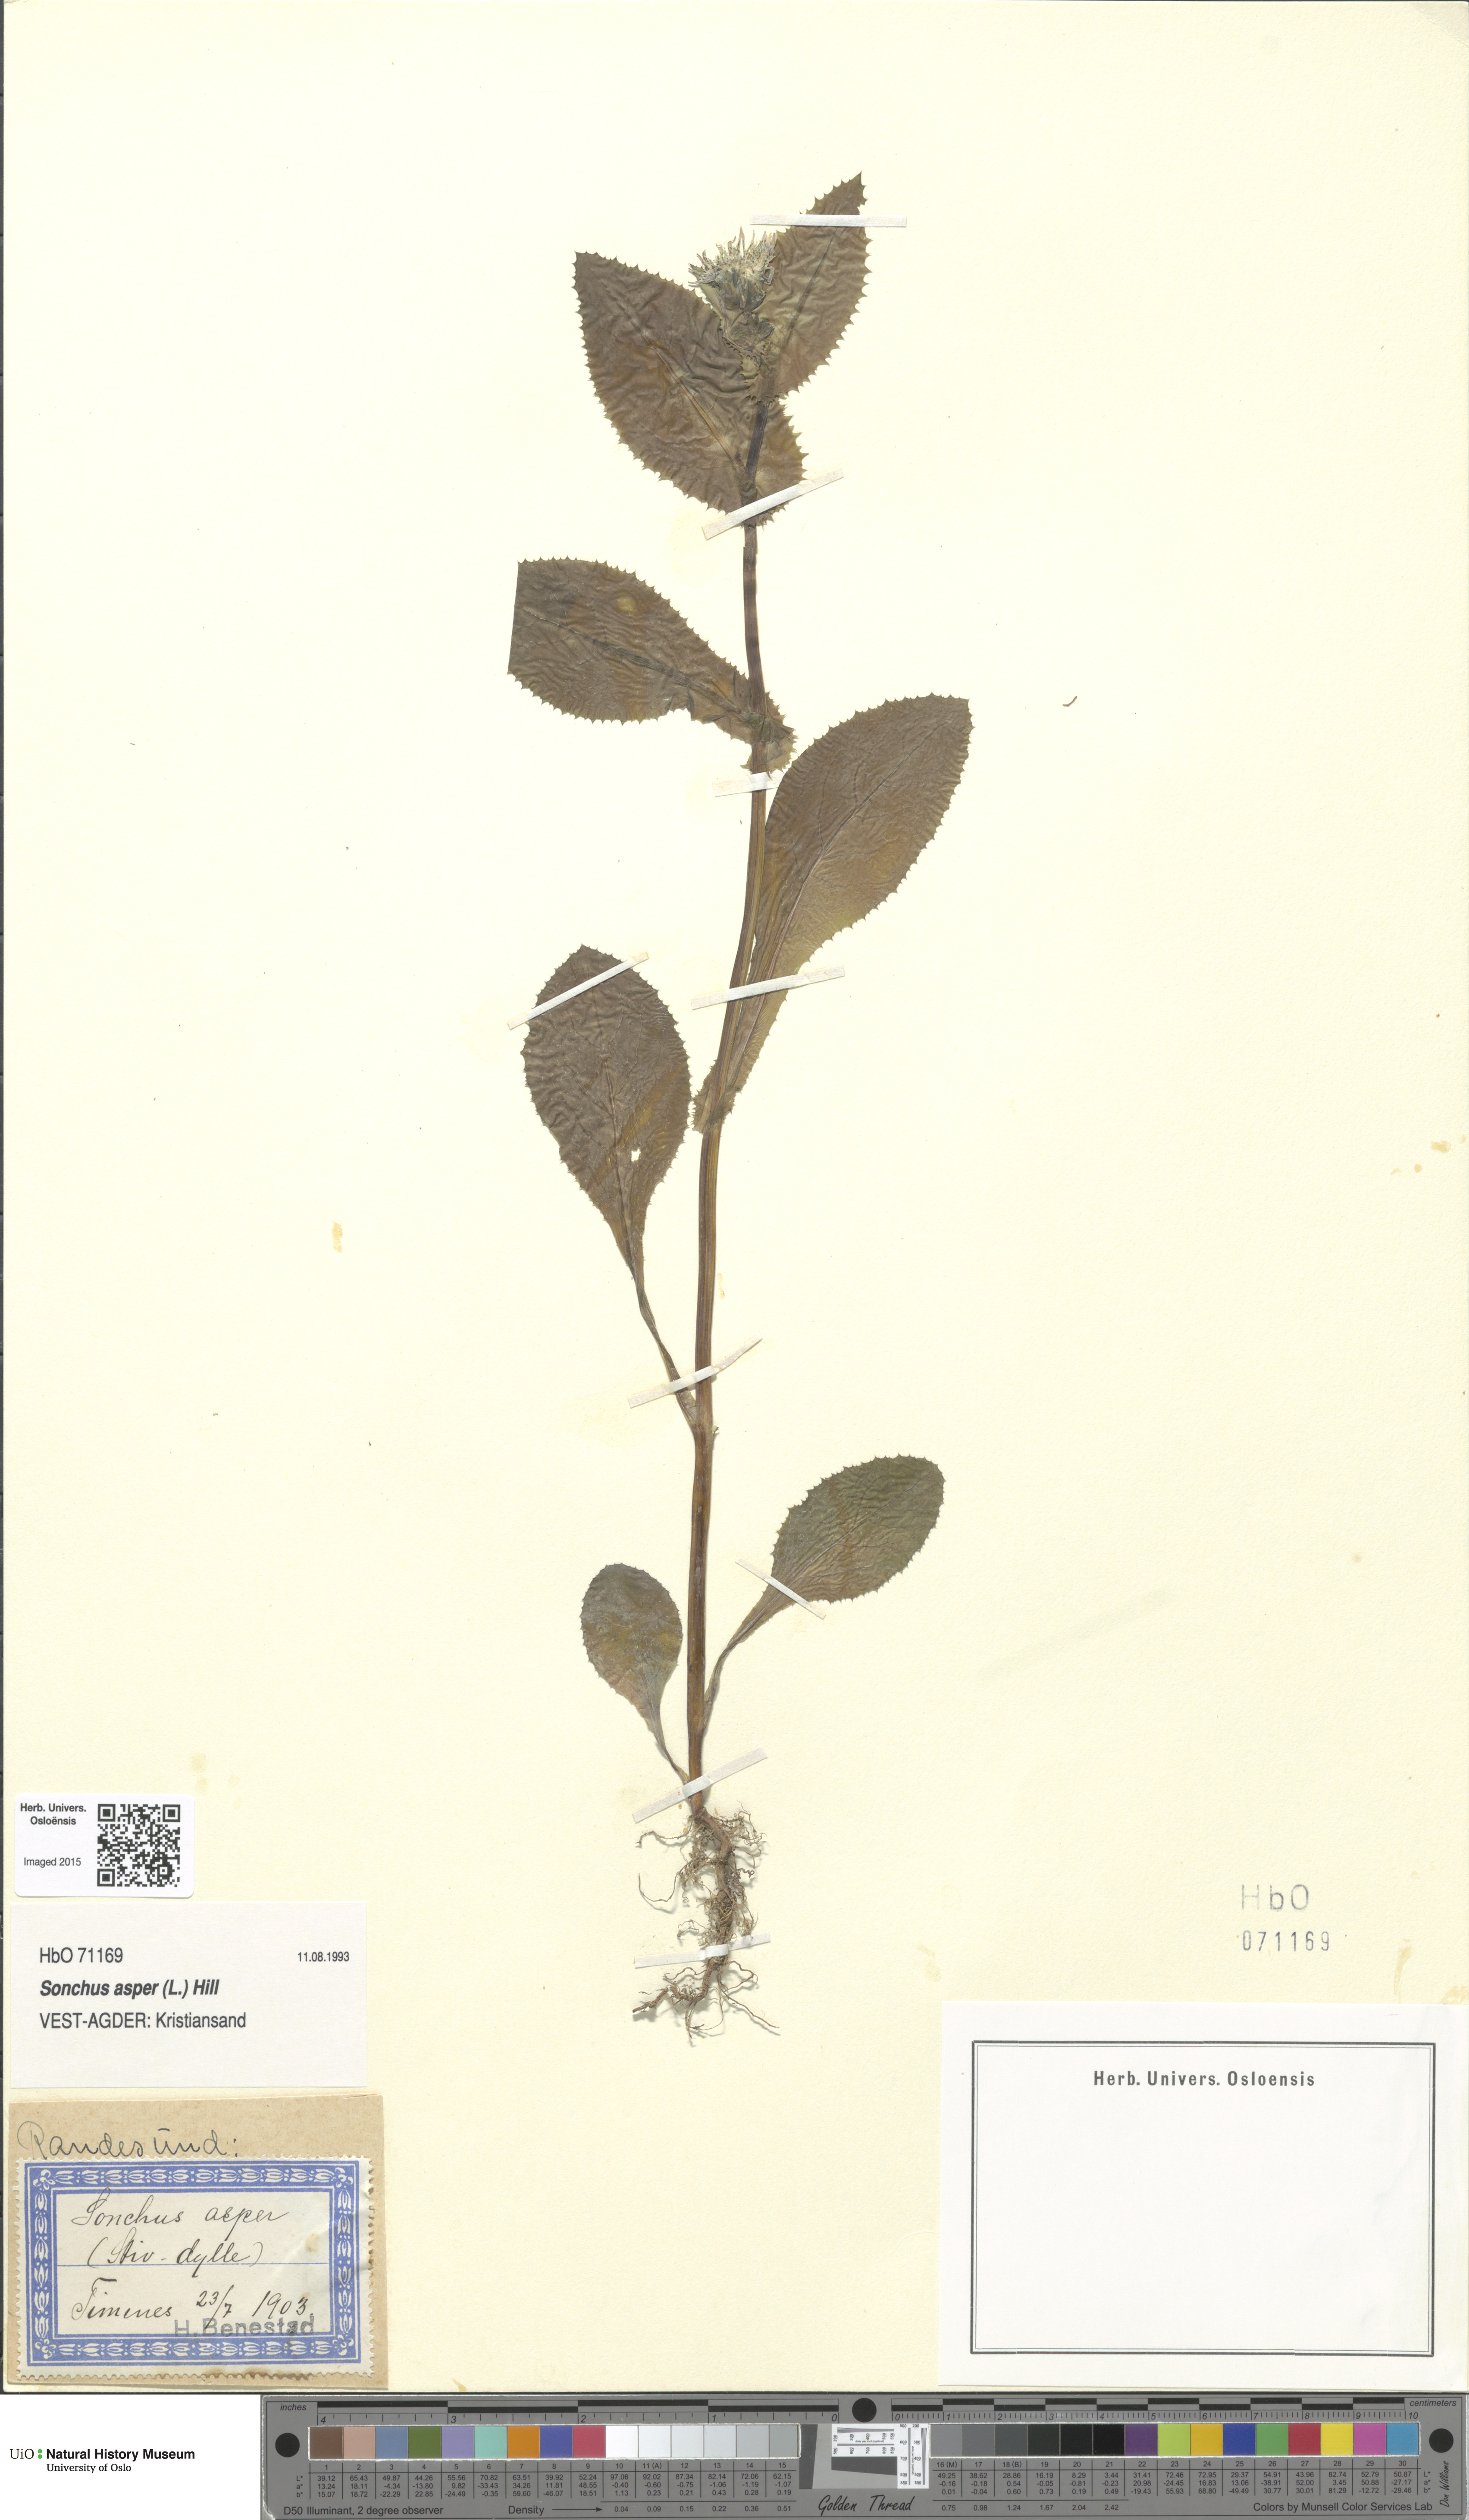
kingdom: Plantae
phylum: Tracheophyta
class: Magnoliopsida
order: Asterales
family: Asteraceae
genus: Sonchus
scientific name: Sonchus asper
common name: Prickly sow-thistle
